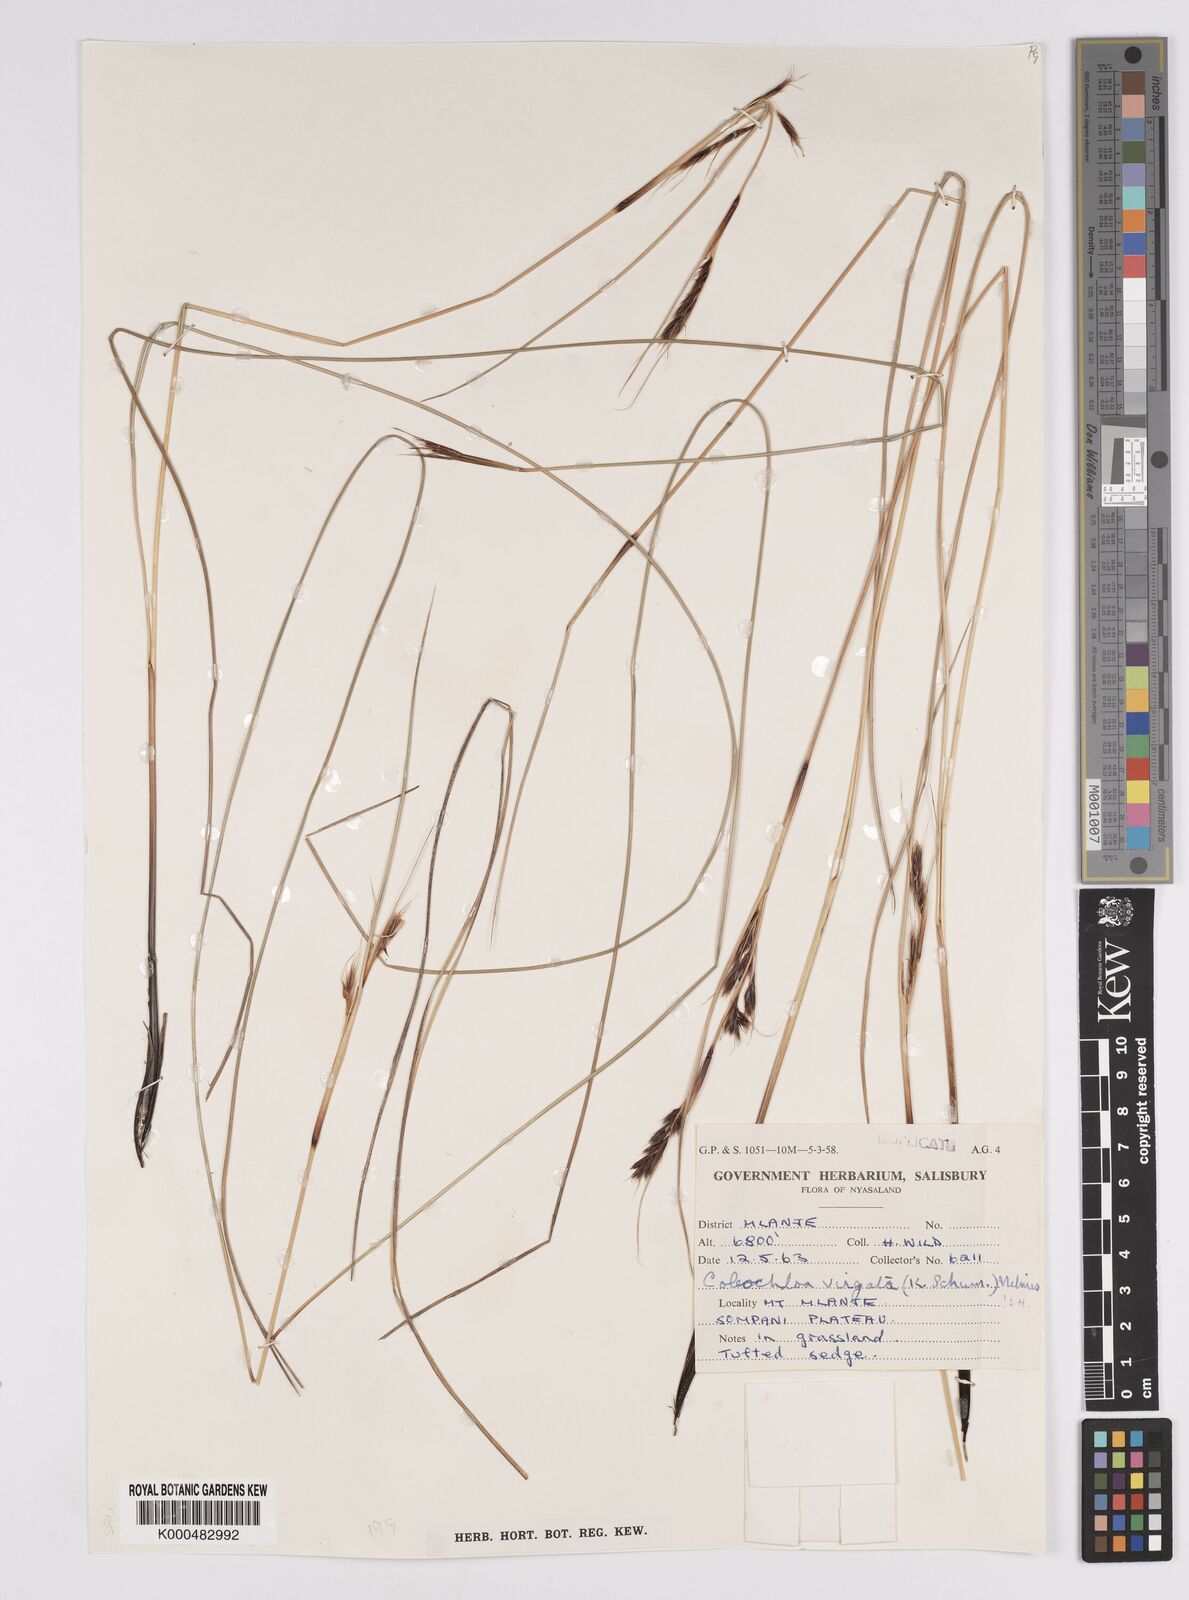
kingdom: Plantae
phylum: Tracheophyta
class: Liliopsida
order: Poales
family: Cyperaceae
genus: Coleochloa
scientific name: Coleochloa virgata
